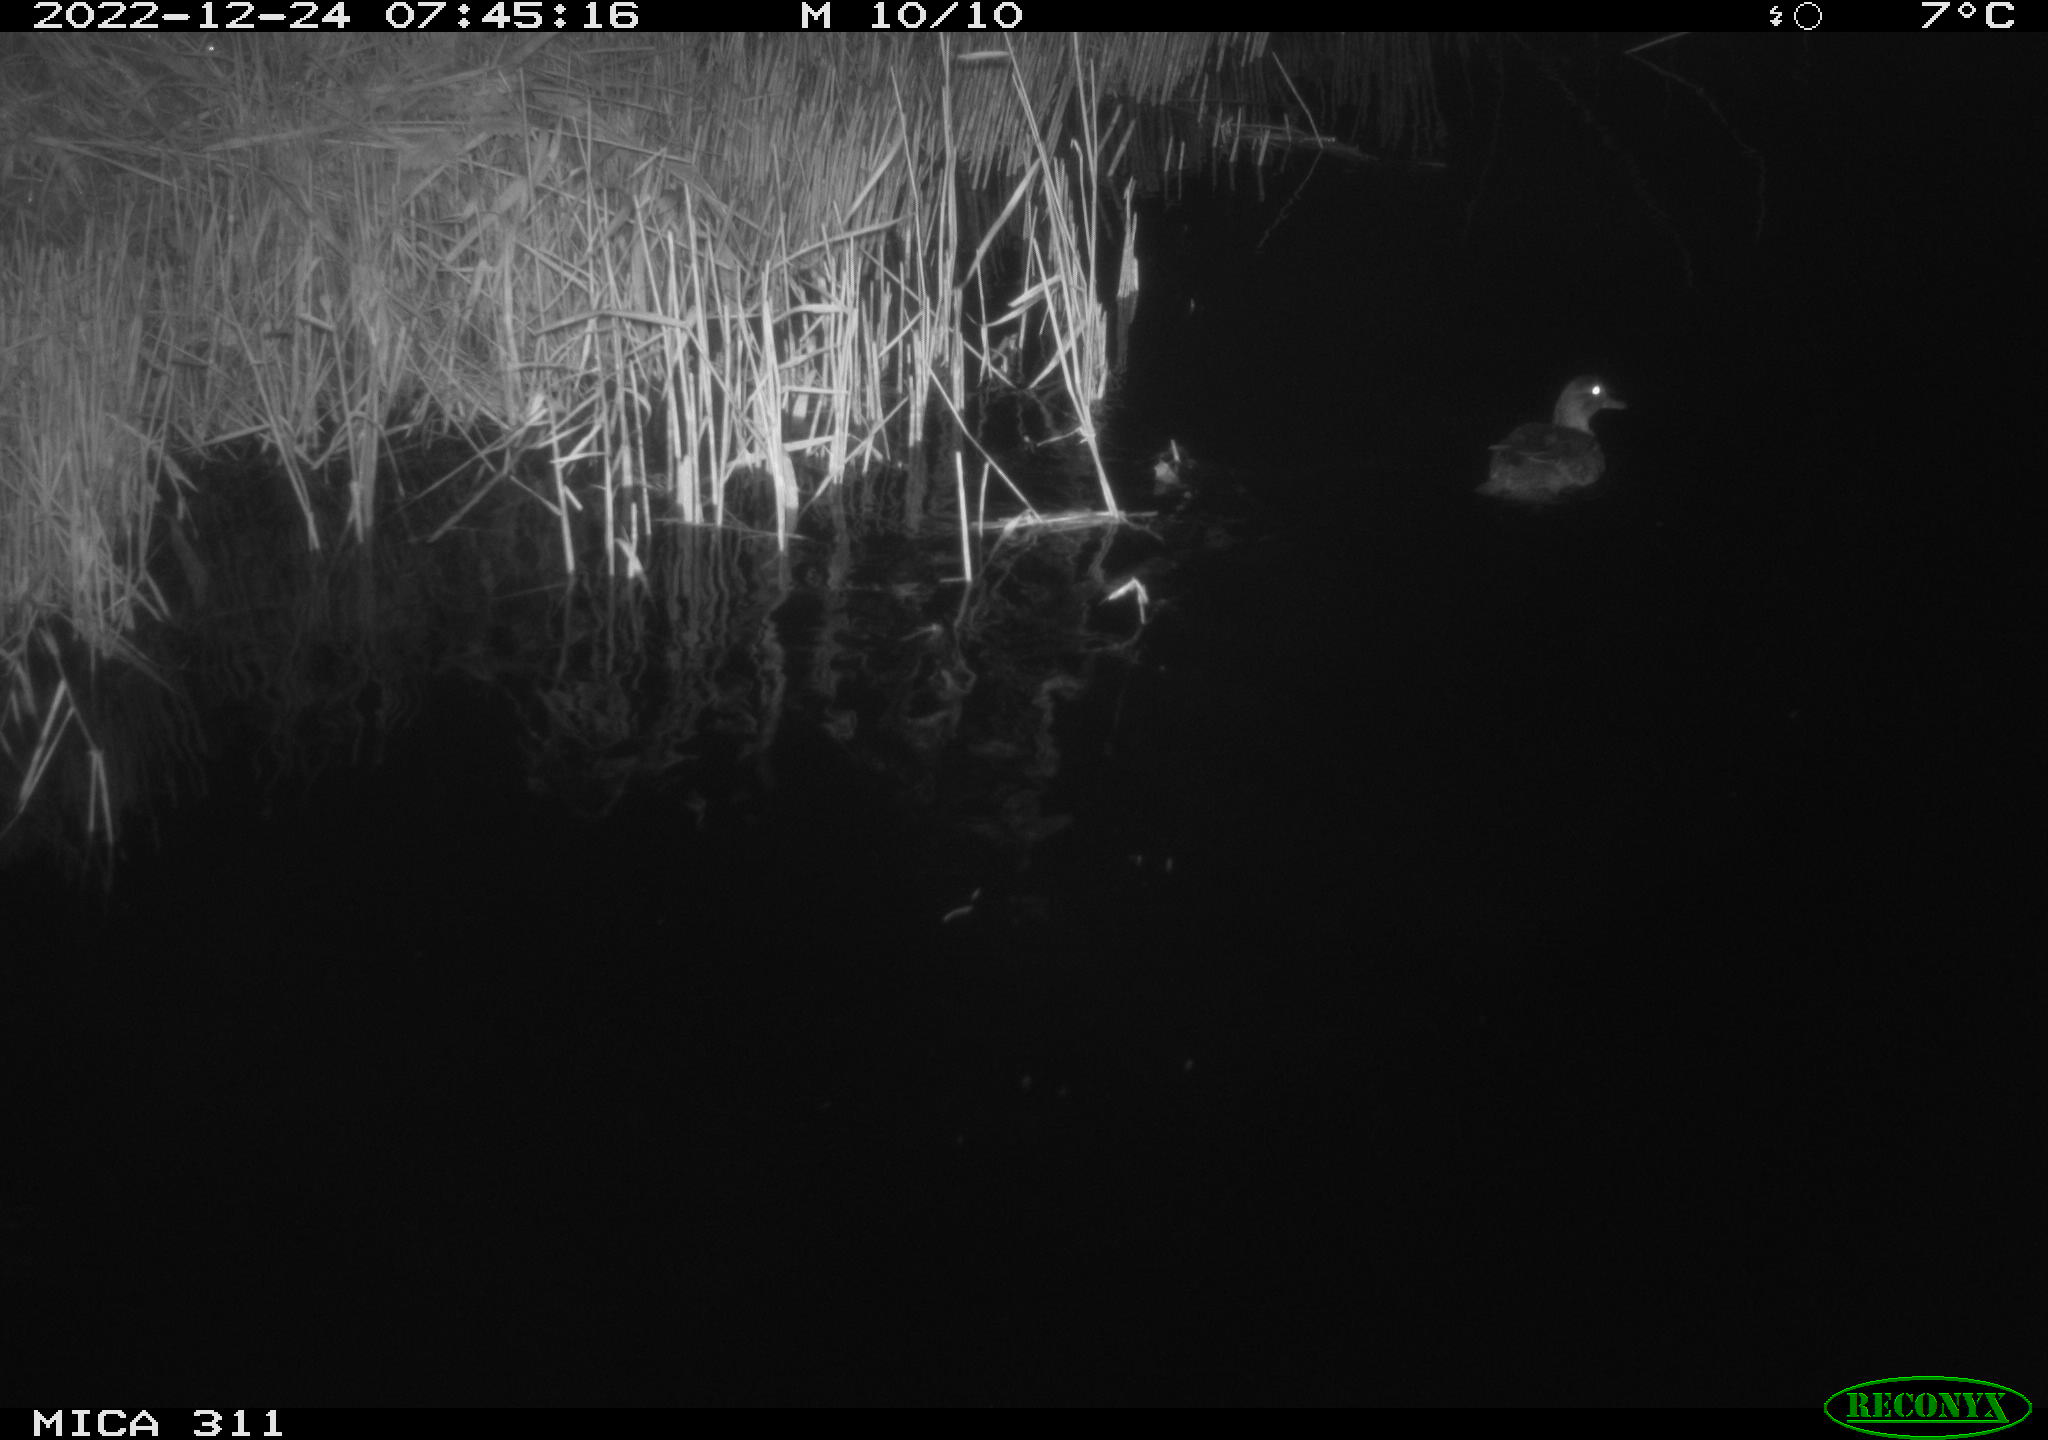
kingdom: Animalia
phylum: Chordata
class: Aves
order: Anseriformes
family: Anatidae
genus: Anas
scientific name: Anas
